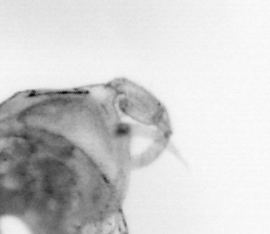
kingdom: Animalia
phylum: Arthropoda
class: Copepoda
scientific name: Copepoda
